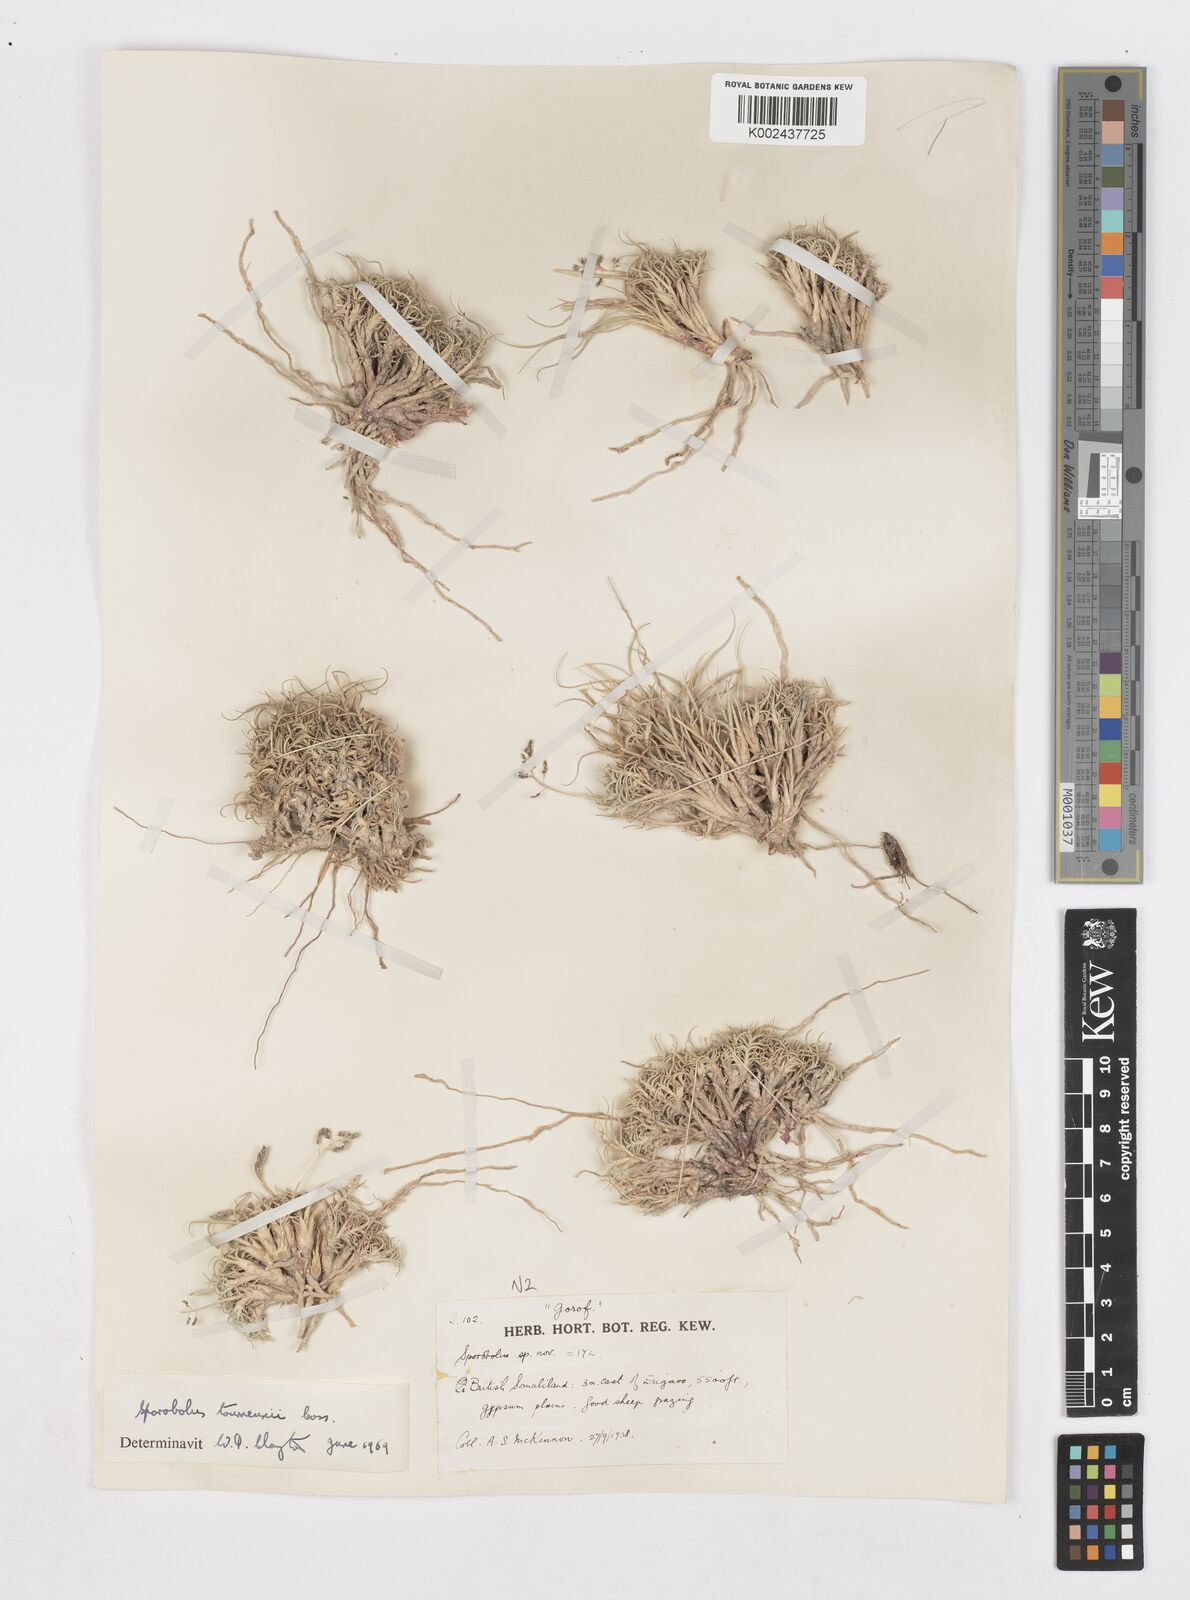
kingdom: Plantae
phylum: Tracheophyta
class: Liliopsida
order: Poales
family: Poaceae
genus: Sporobolus
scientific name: Sporobolus tourneuxii
